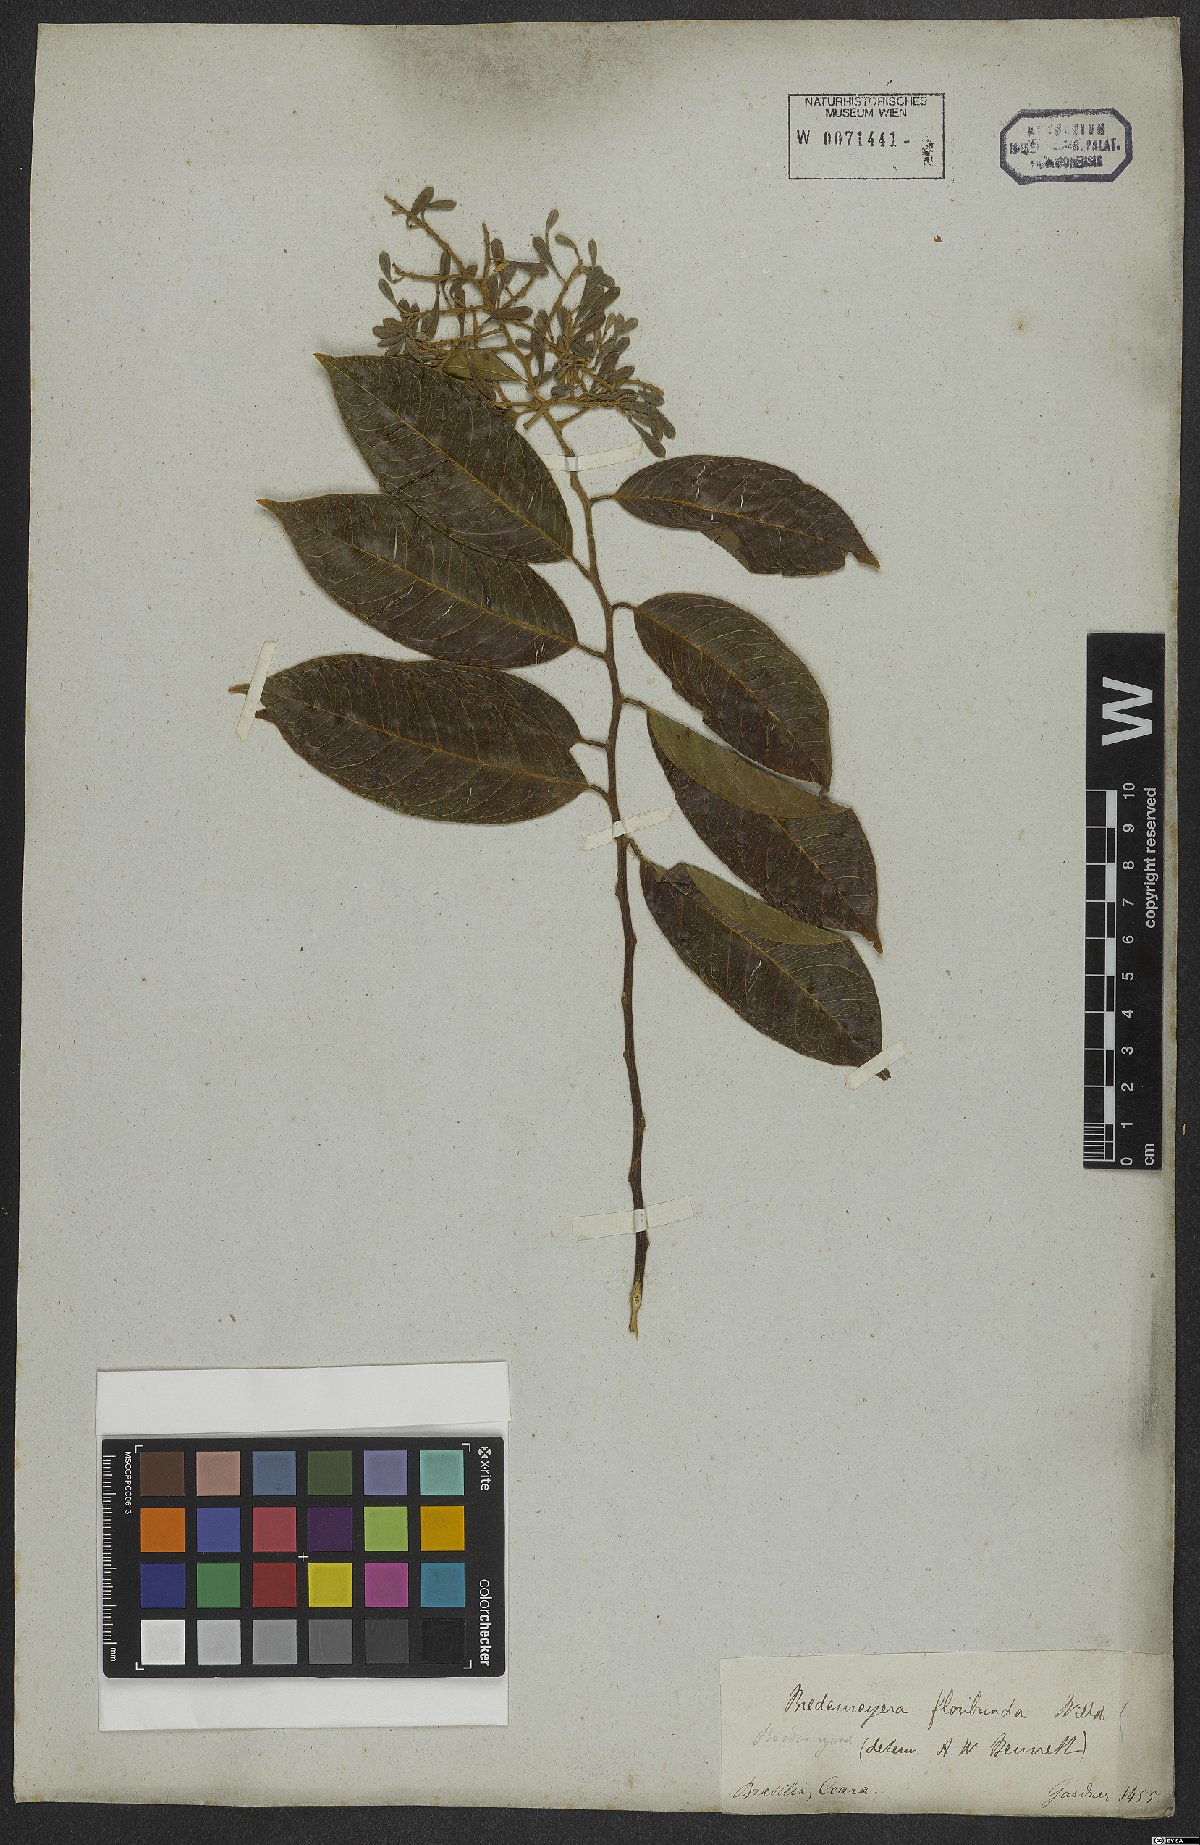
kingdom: Plantae
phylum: Tracheophyta
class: Magnoliopsida
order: Fabales
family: Polygalaceae
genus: Bredemeyera
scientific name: Bredemeyera floribunda
